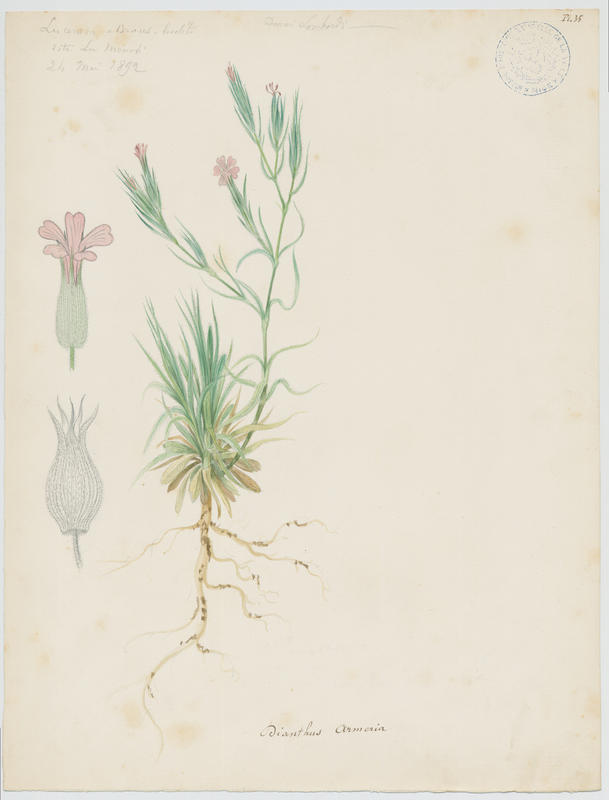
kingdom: Plantae
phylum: Tracheophyta
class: Magnoliopsida
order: Caryophyllales
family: Caryophyllaceae
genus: Dianthus
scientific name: Dianthus armeria
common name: Deptford pink
